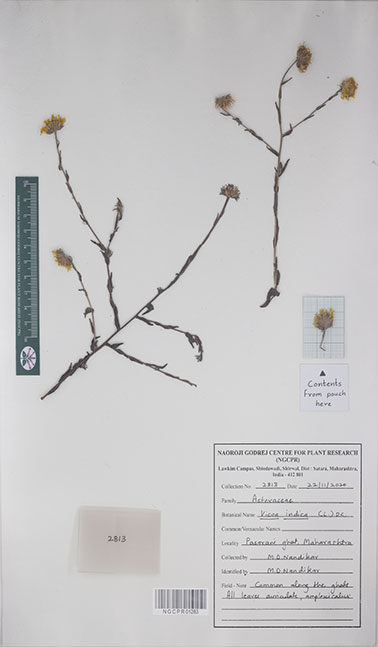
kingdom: Plantae
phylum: Tracheophyta
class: Magnoliopsida
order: Asterales
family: Asteraceae
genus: Vicoa
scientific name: Vicoa indica
